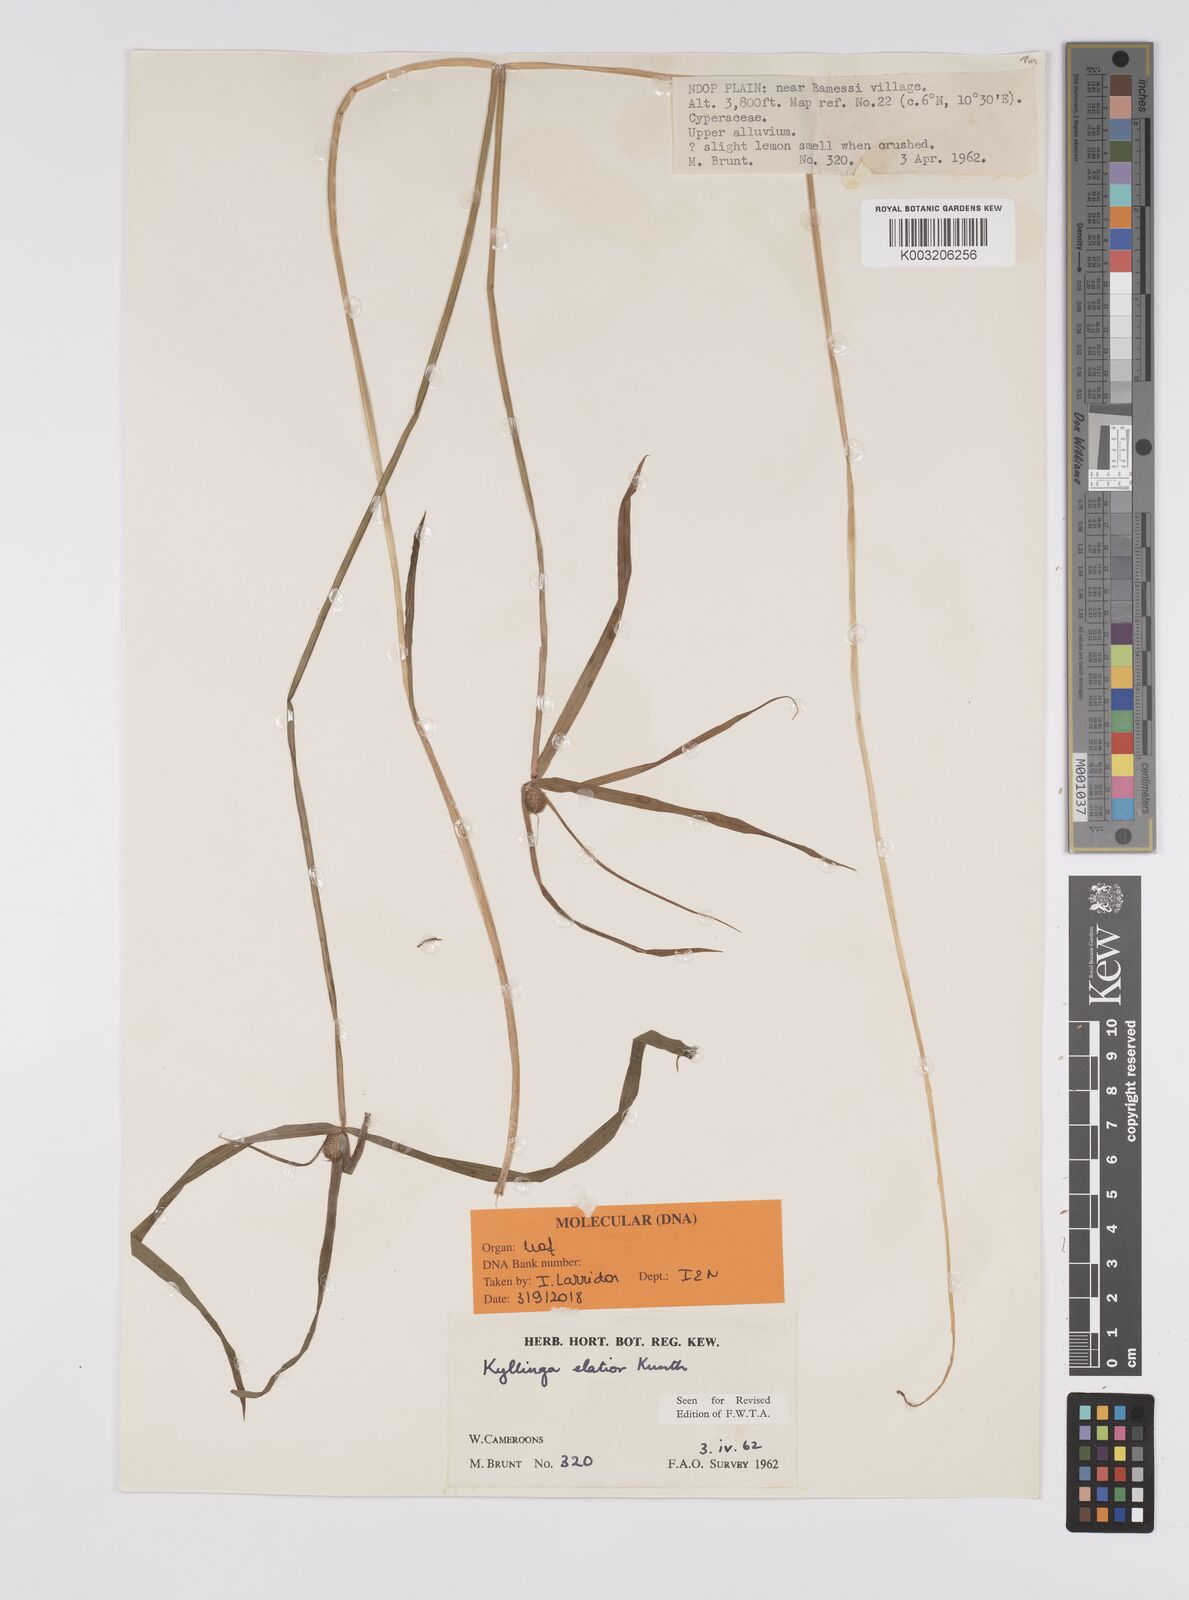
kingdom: Plantae
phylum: Tracheophyta
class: Liliopsida
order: Poales
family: Cyperaceae
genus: Cyperus
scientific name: Cyperus
